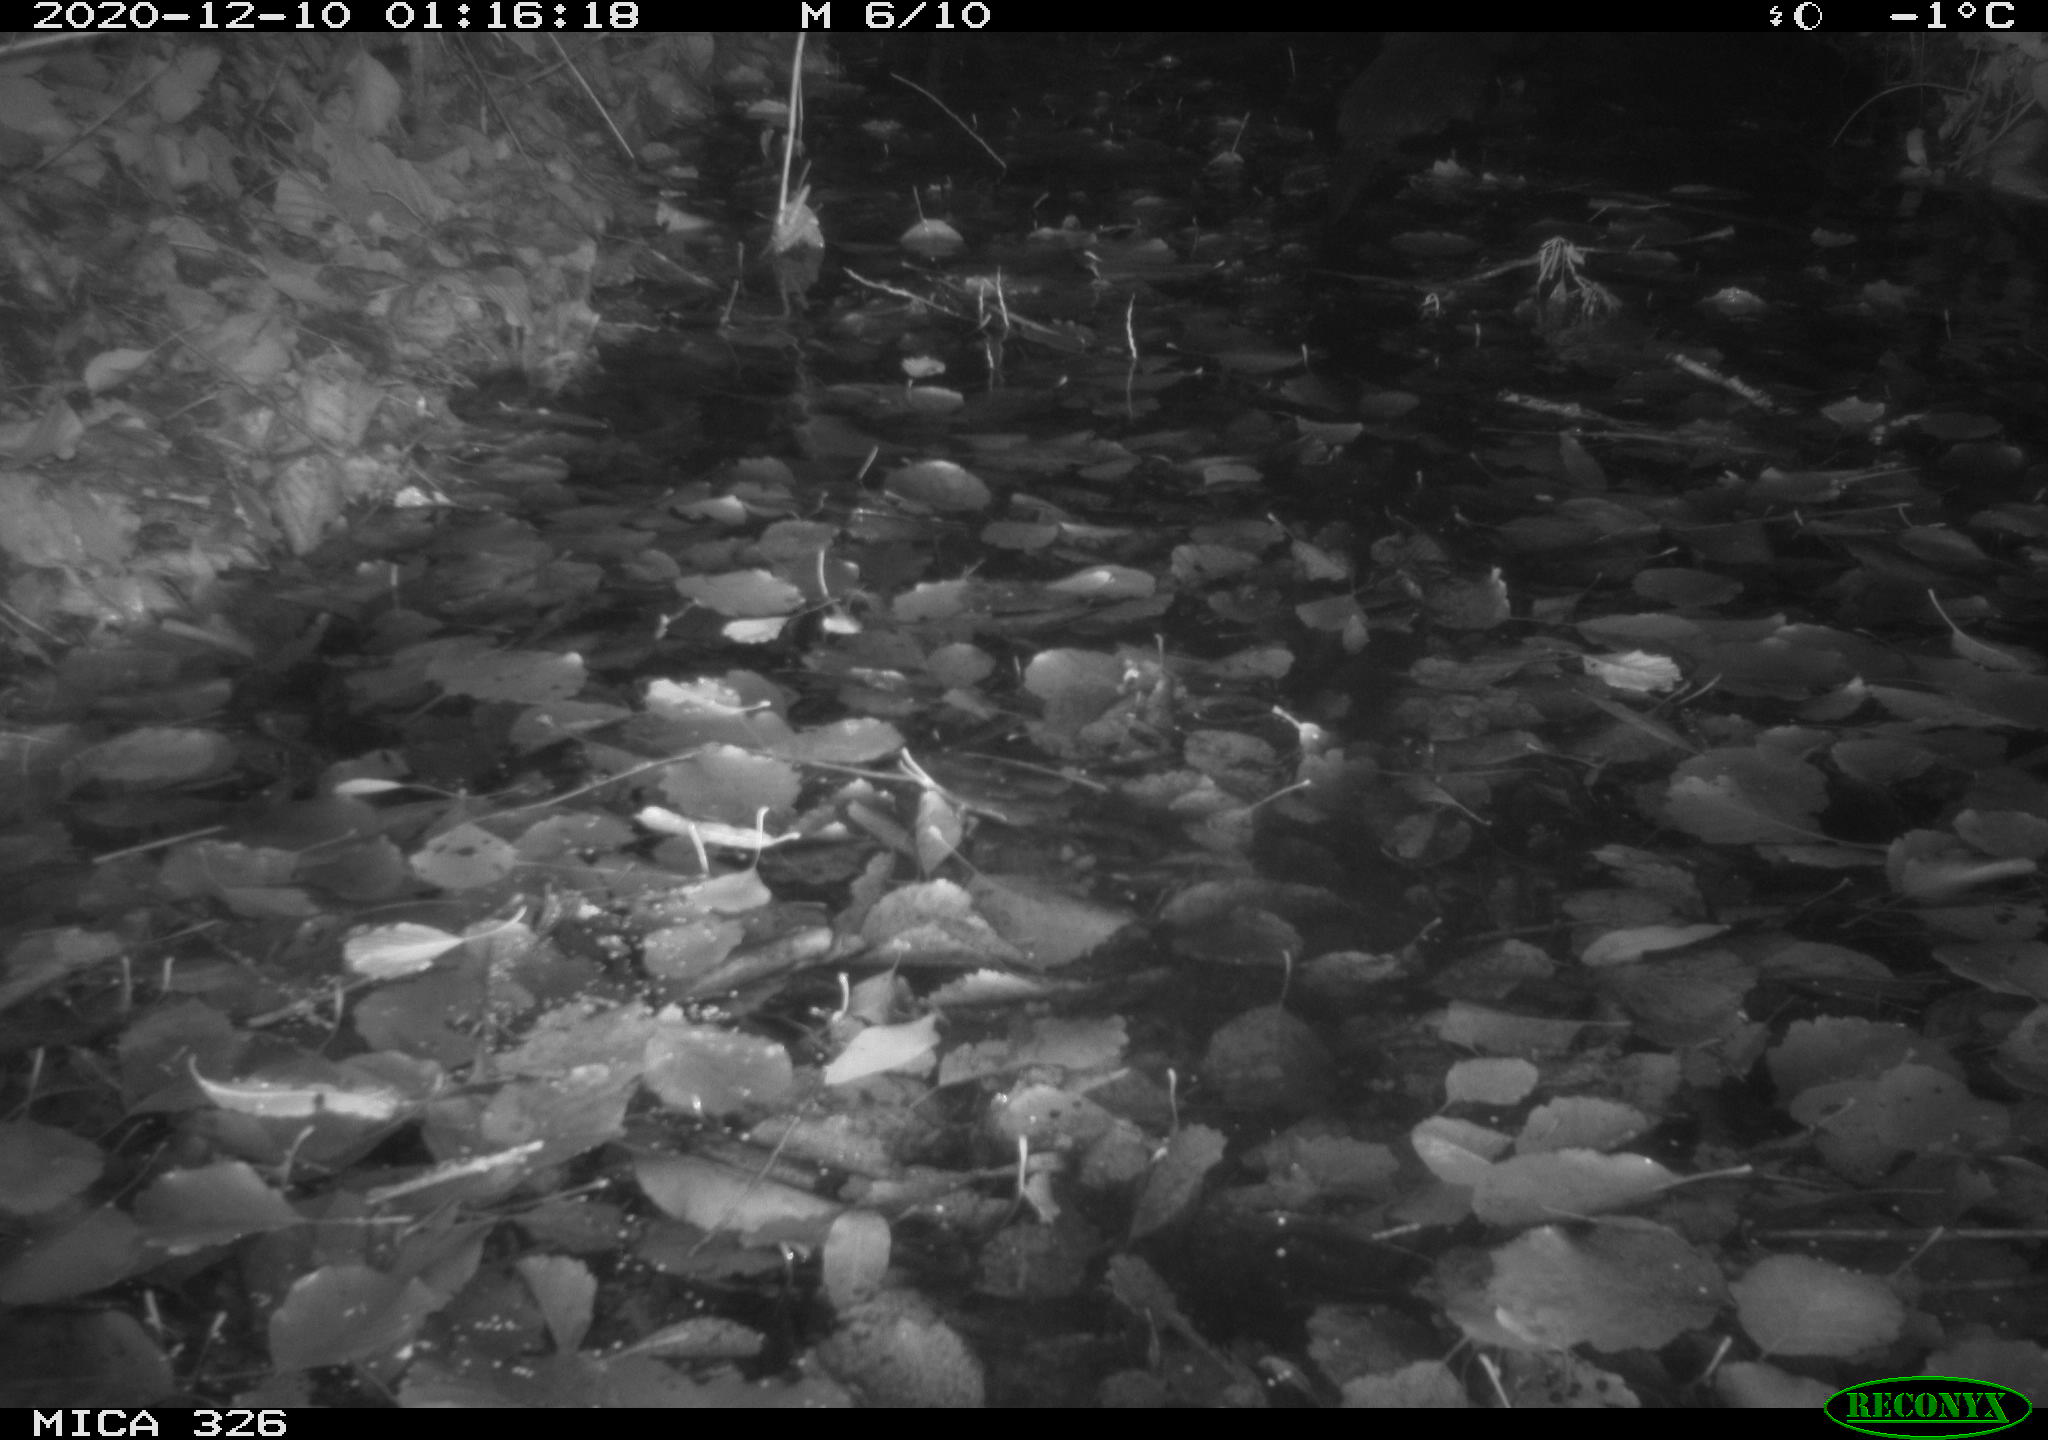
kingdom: Animalia
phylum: Chordata
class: Mammalia
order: Carnivora
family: Mustelidae
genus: Lutra
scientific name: Lutra lutra
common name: European otter
